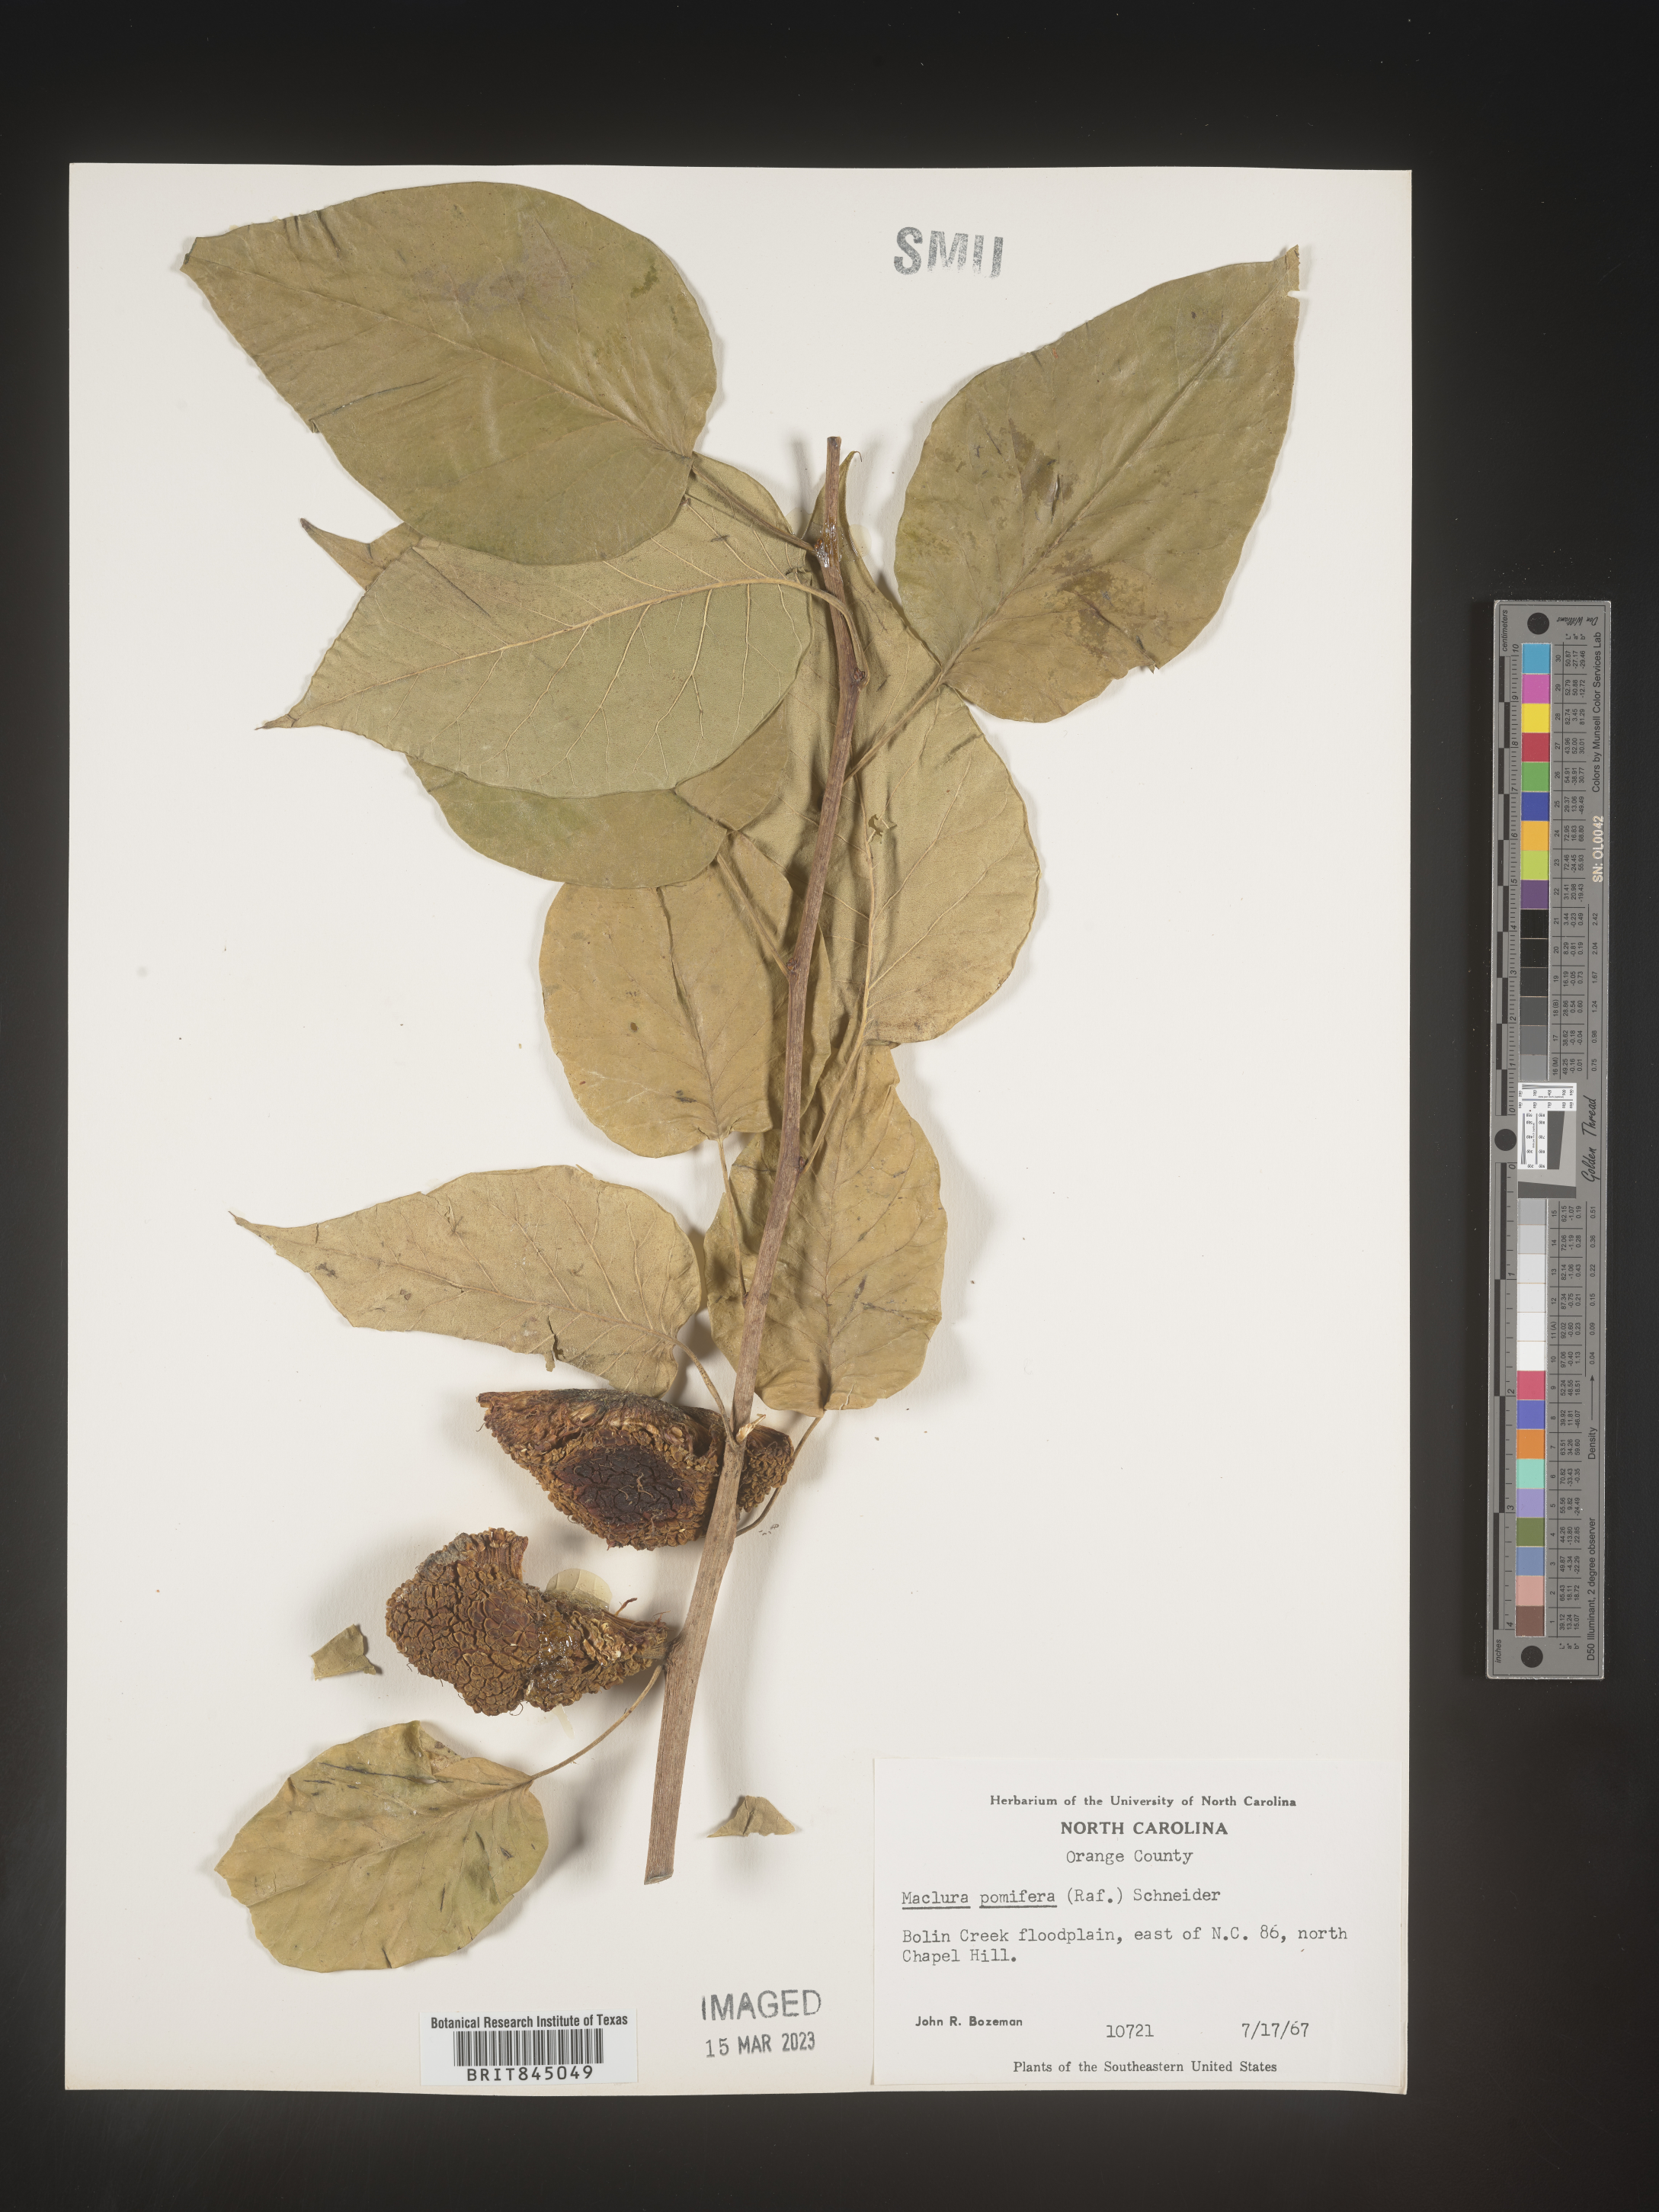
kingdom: Plantae
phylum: Tracheophyta
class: Magnoliopsida
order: Rosales
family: Moraceae
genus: Maclura
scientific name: Maclura pomifera
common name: Osage-orange
